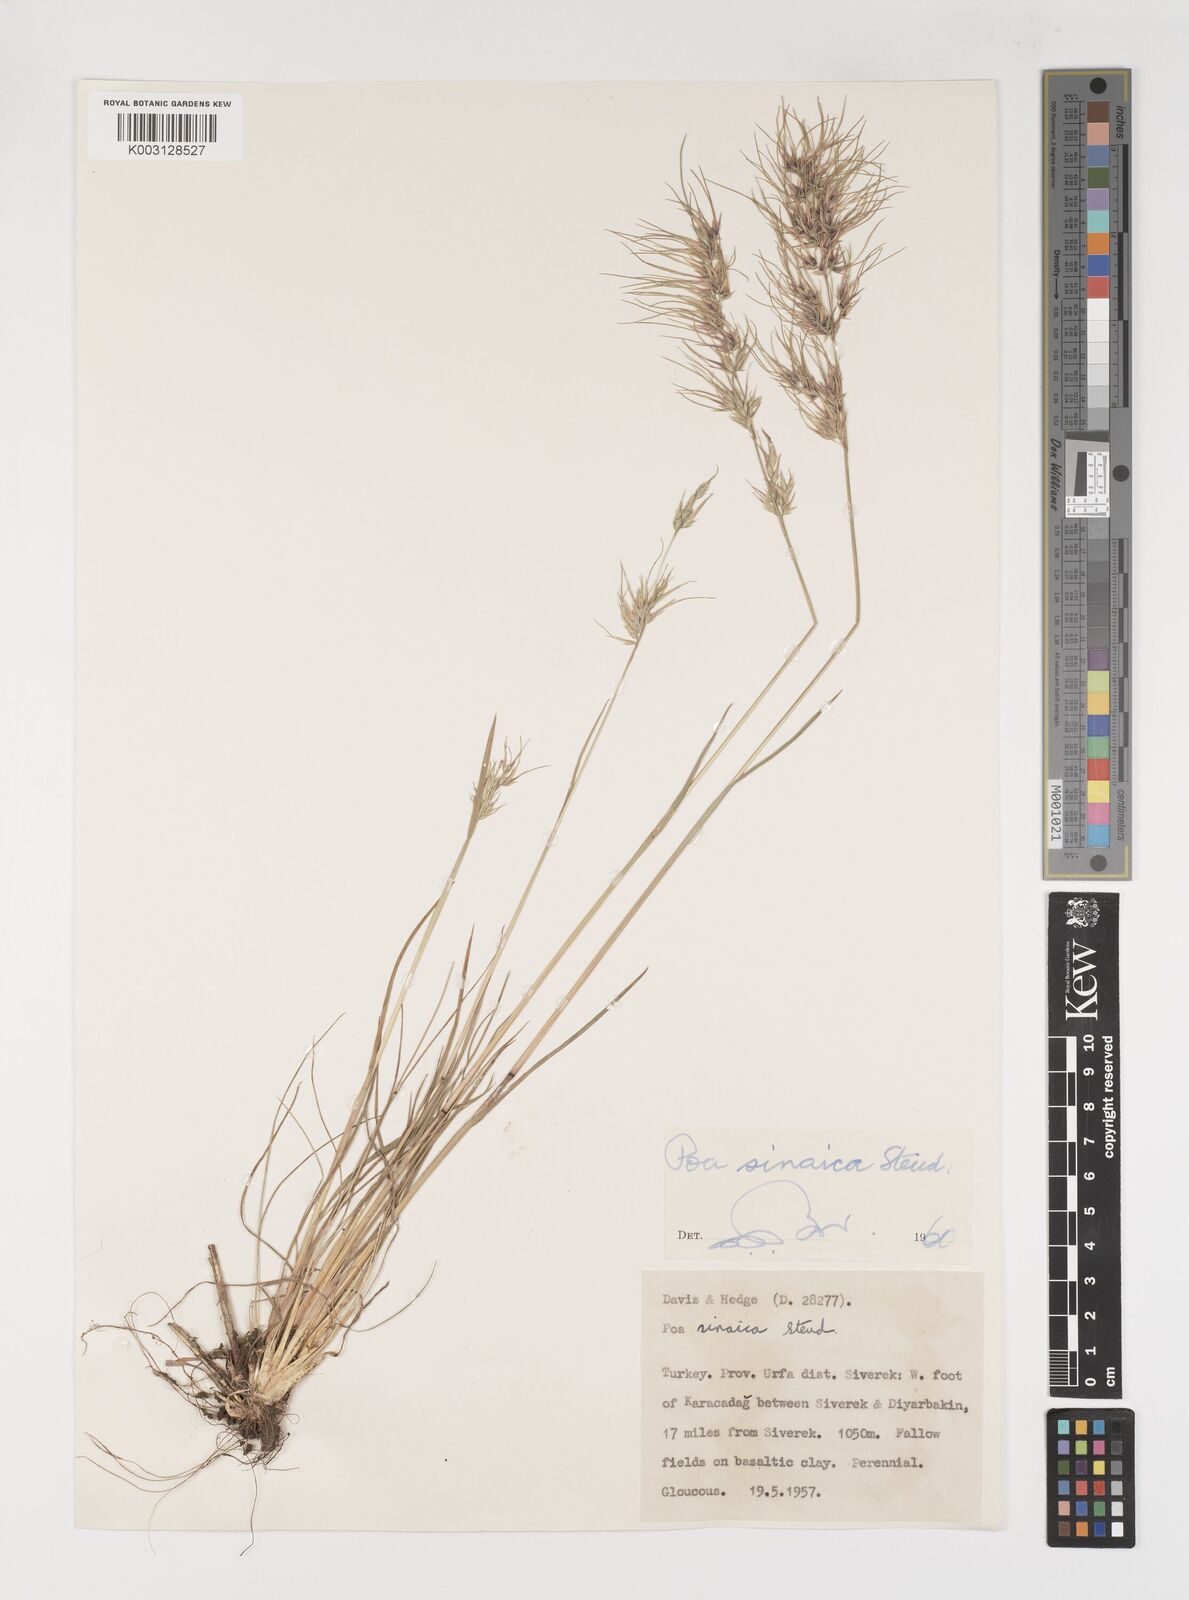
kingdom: Plantae
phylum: Tracheophyta
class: Liliopsida
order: Poales
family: Poaceae
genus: Poa
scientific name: Poa sinaica
